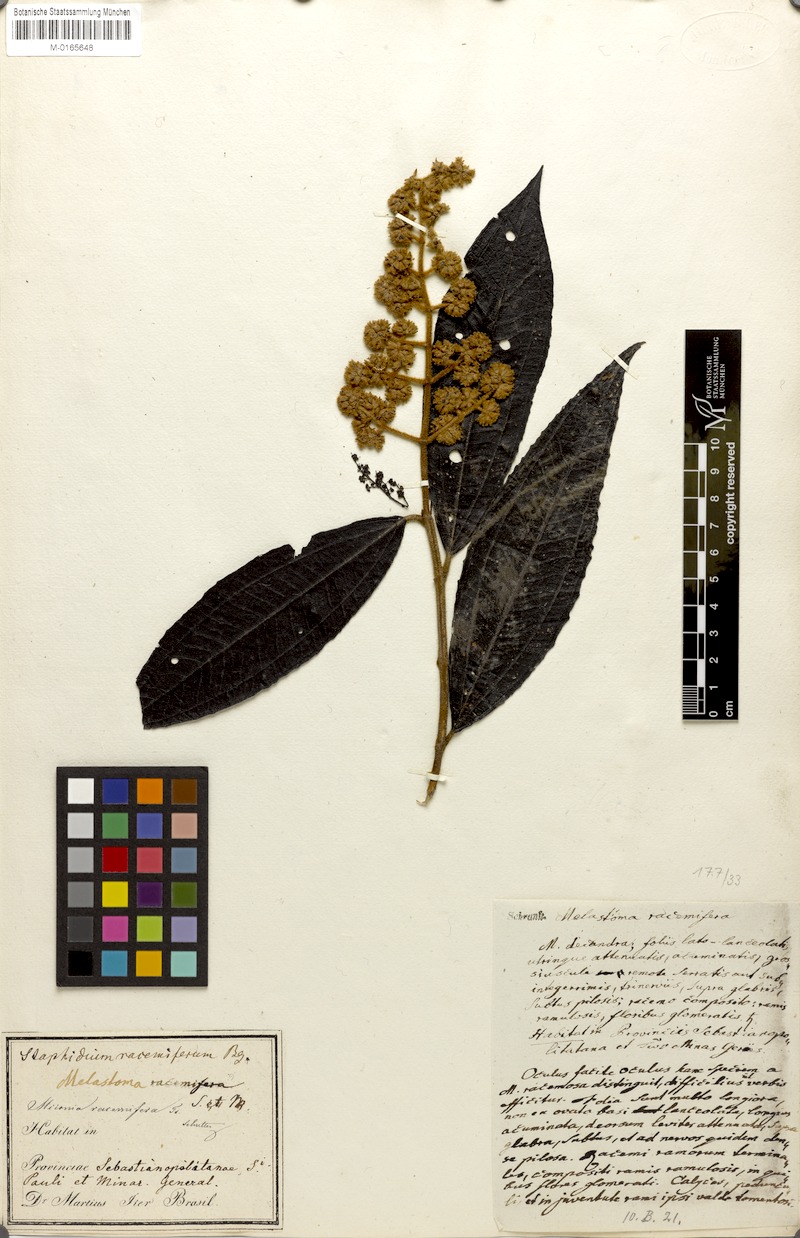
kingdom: Plantae
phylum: Tracheophyta
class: Magnoliopsida
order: Myrtales
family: Melastomataceae
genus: Miconia
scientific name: Miconia racemifera
